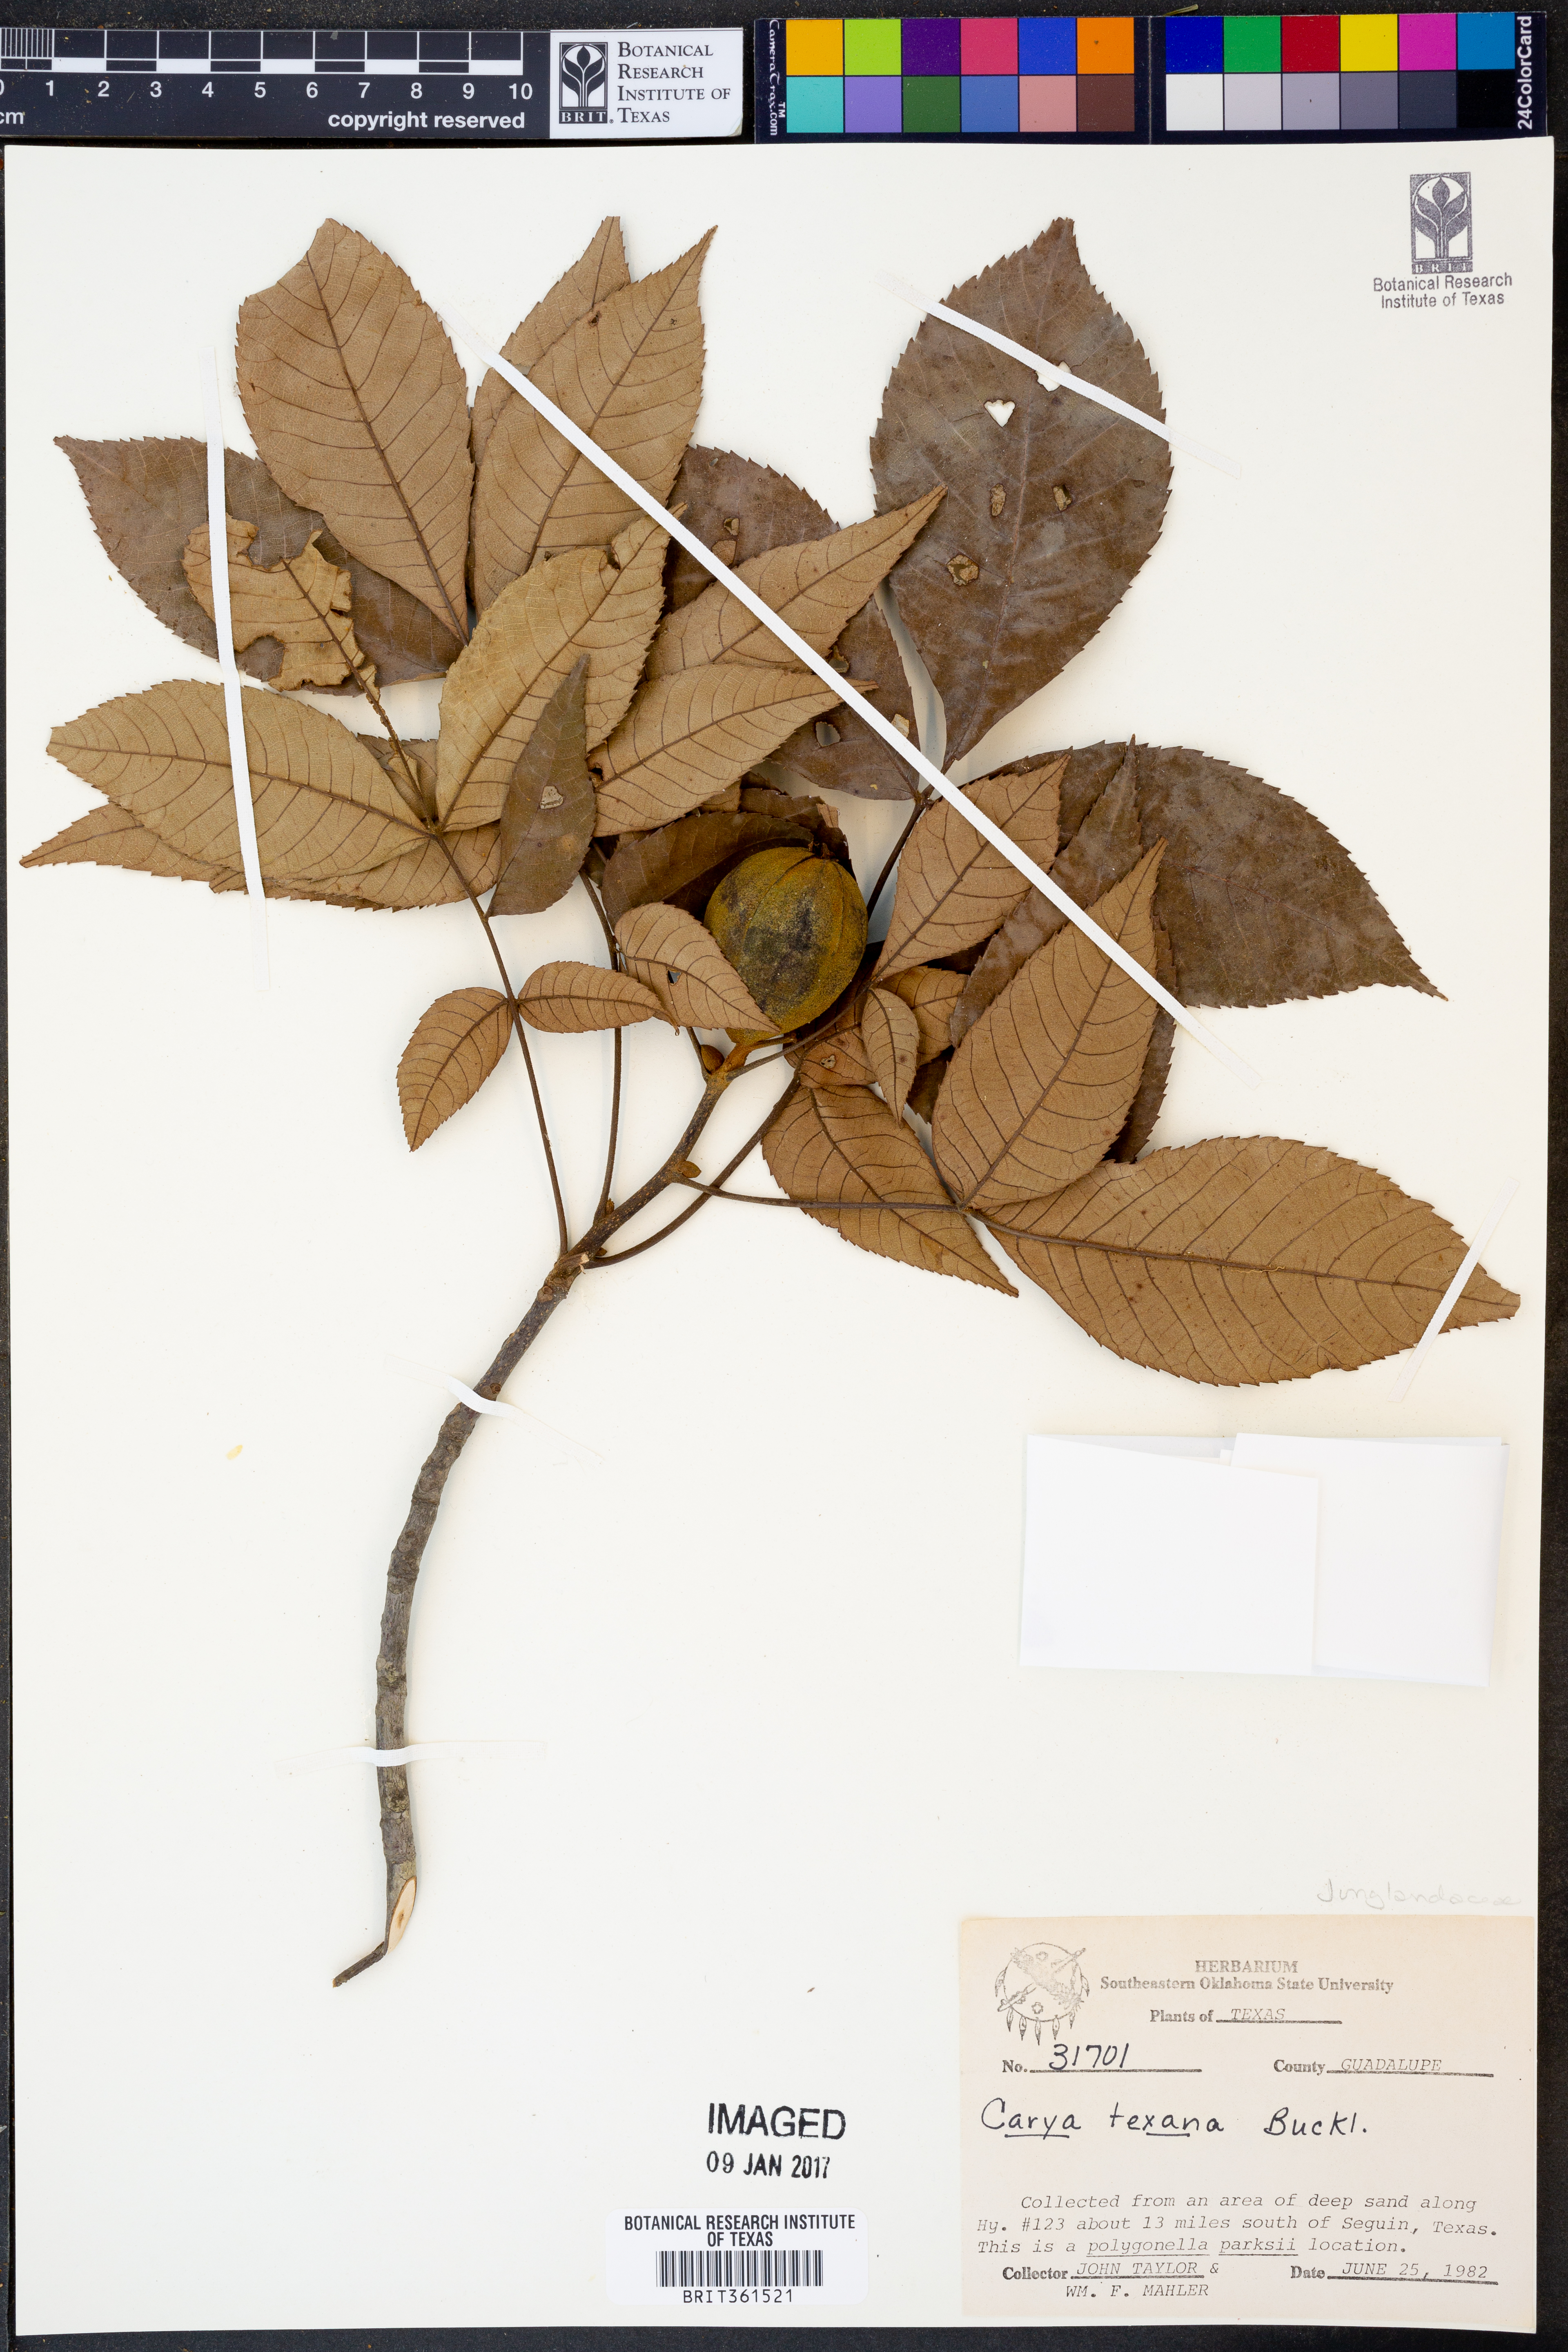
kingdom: Plantae
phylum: Tracheophyta
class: Magnoliopsida
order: Fagales
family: Juglandaceae
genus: Carya
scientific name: Carya texana
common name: Black hickory
